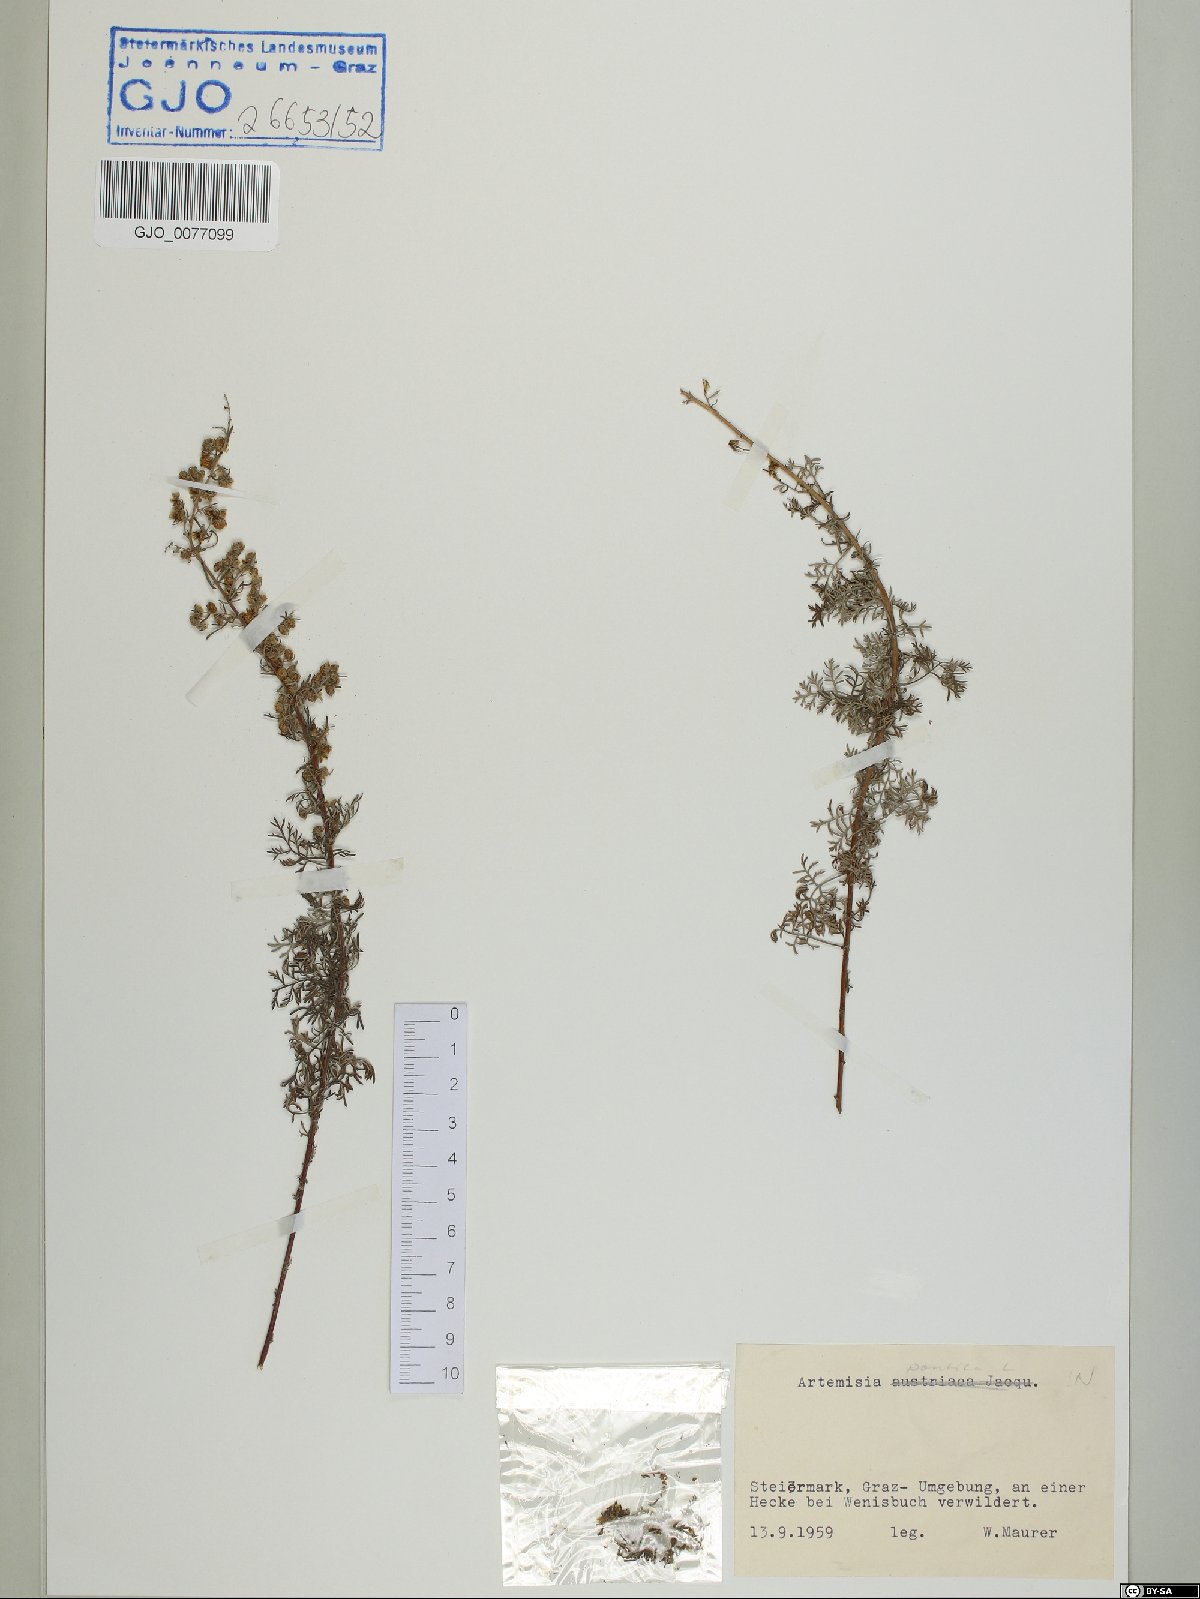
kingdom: Plantae
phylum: Tracheophyta
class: Magnoliopsida
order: Asterales
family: Asteraceae
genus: Artemisia
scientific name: Artemisia pontica
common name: Roman wormwood
